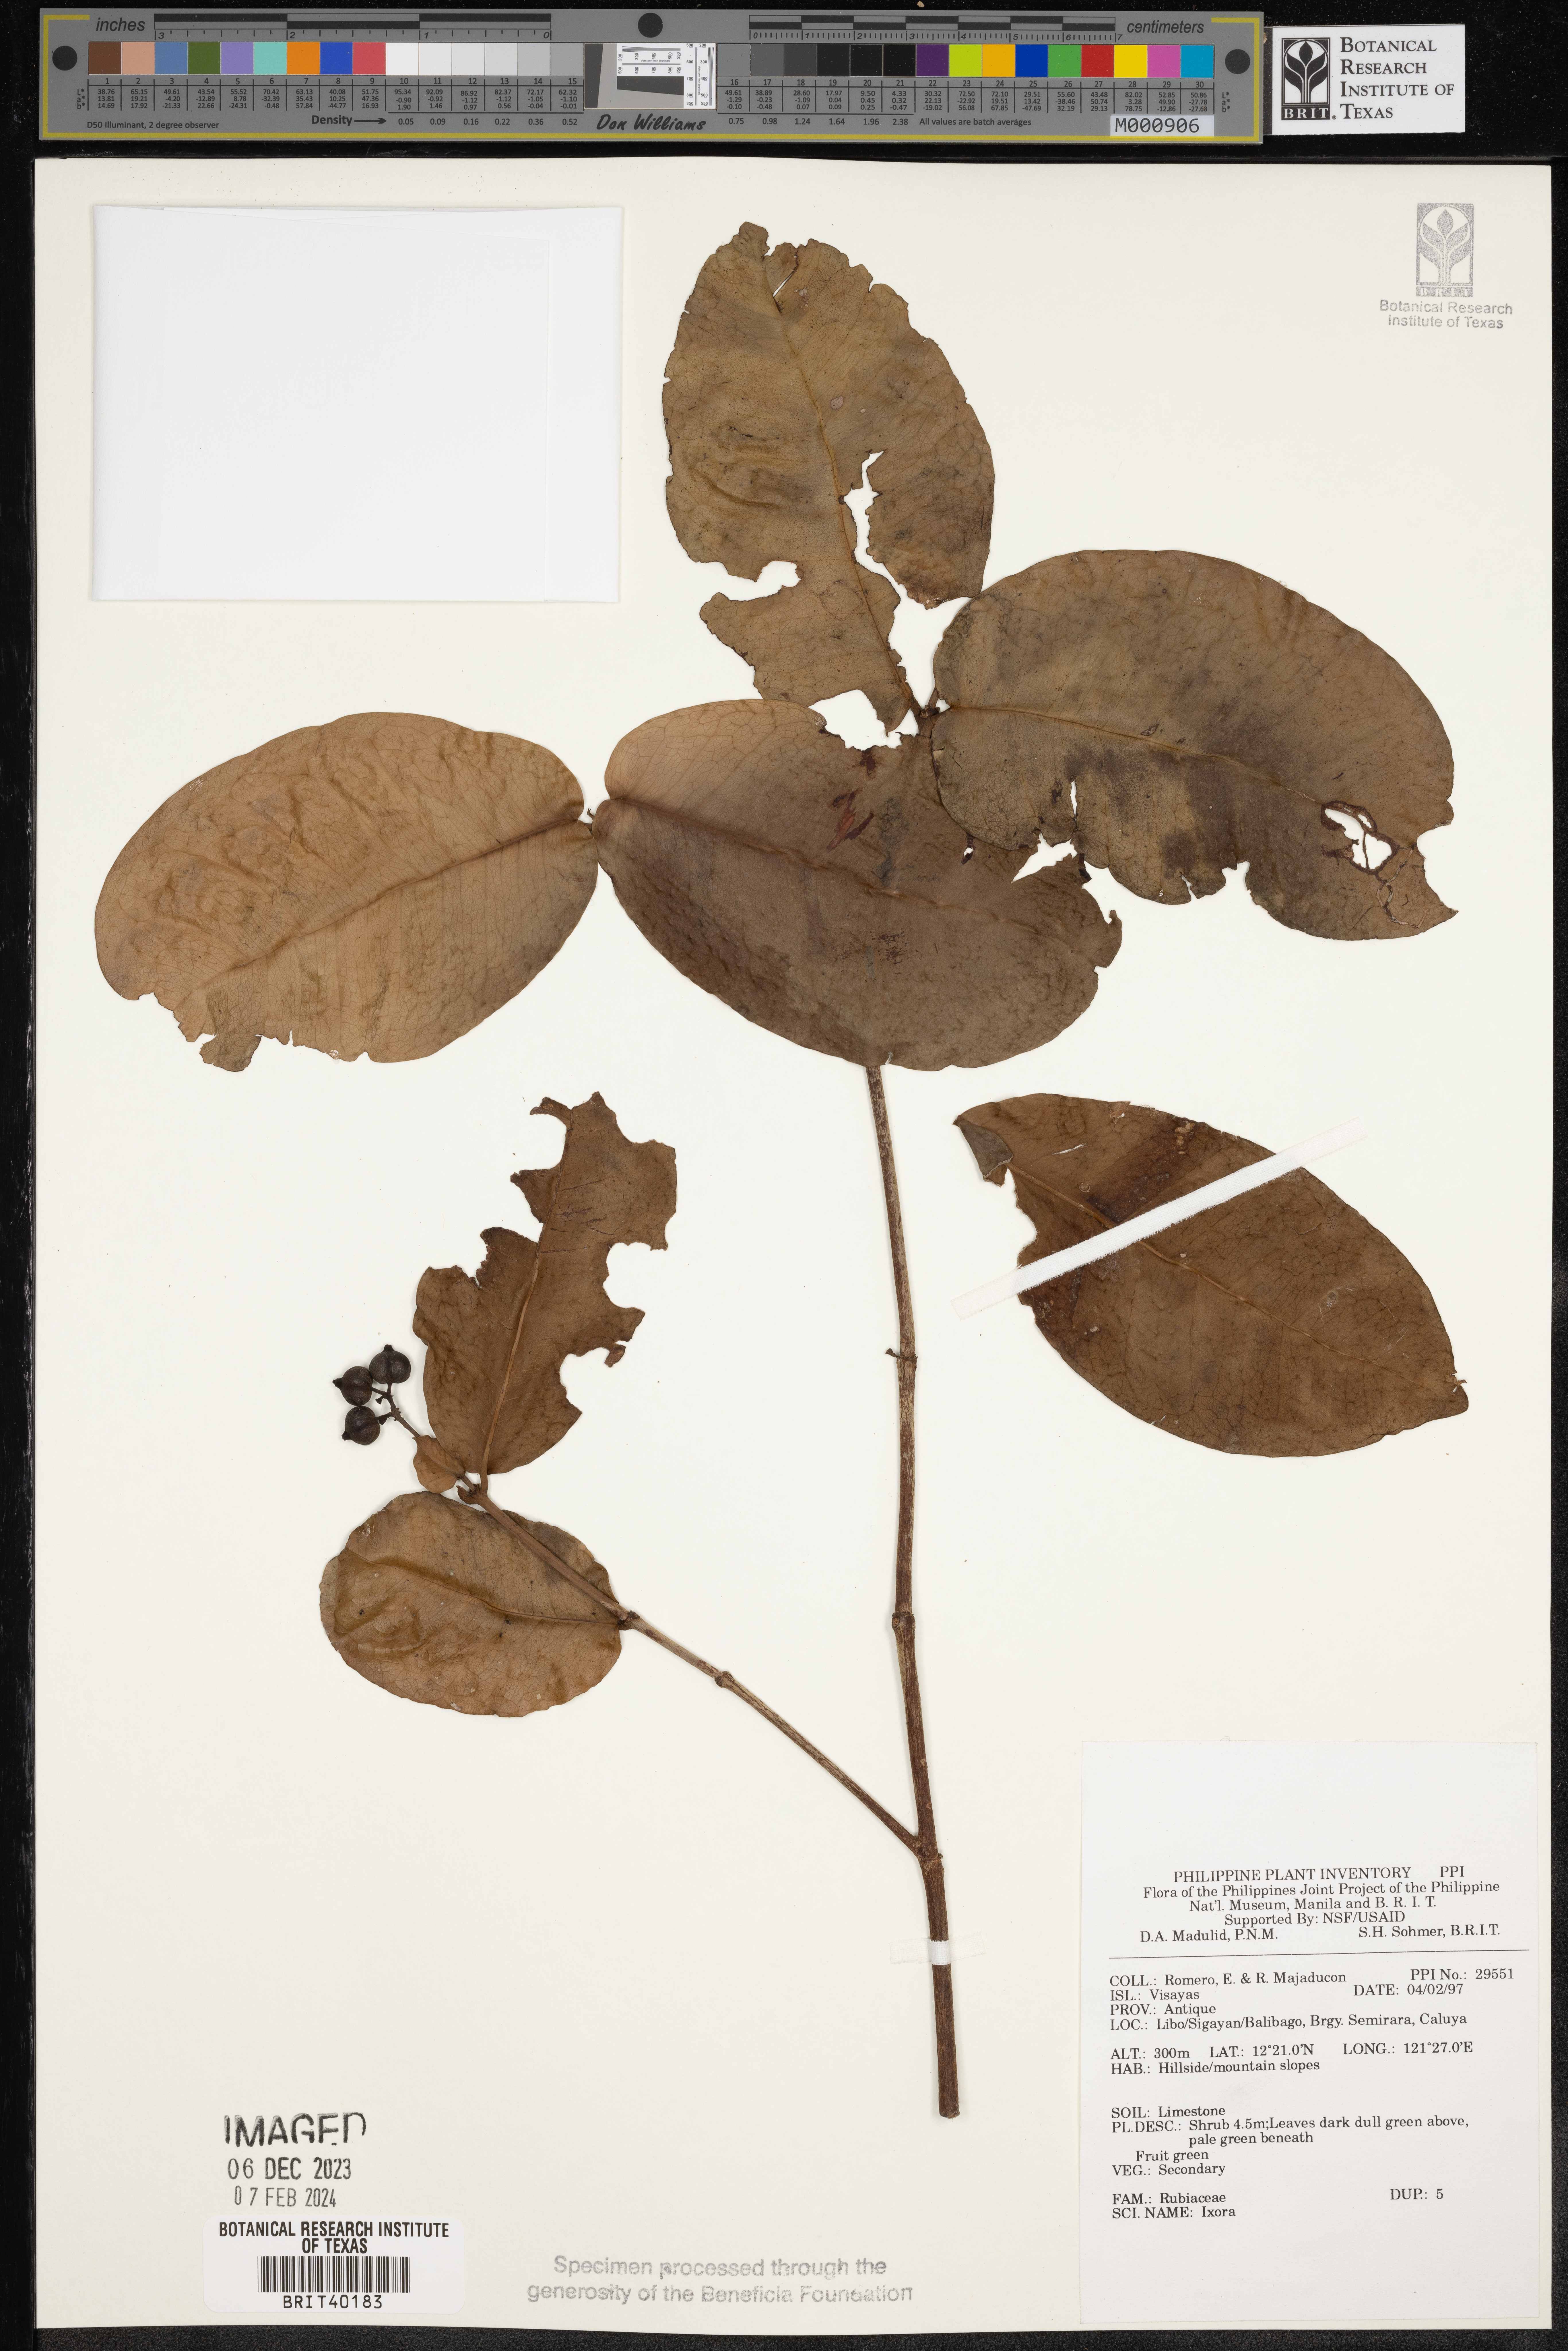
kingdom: Plantae
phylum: Tracheophyta
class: Magnoliopsida
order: Gentianales
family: Rubiaceae
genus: Ixora
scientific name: Ixora
